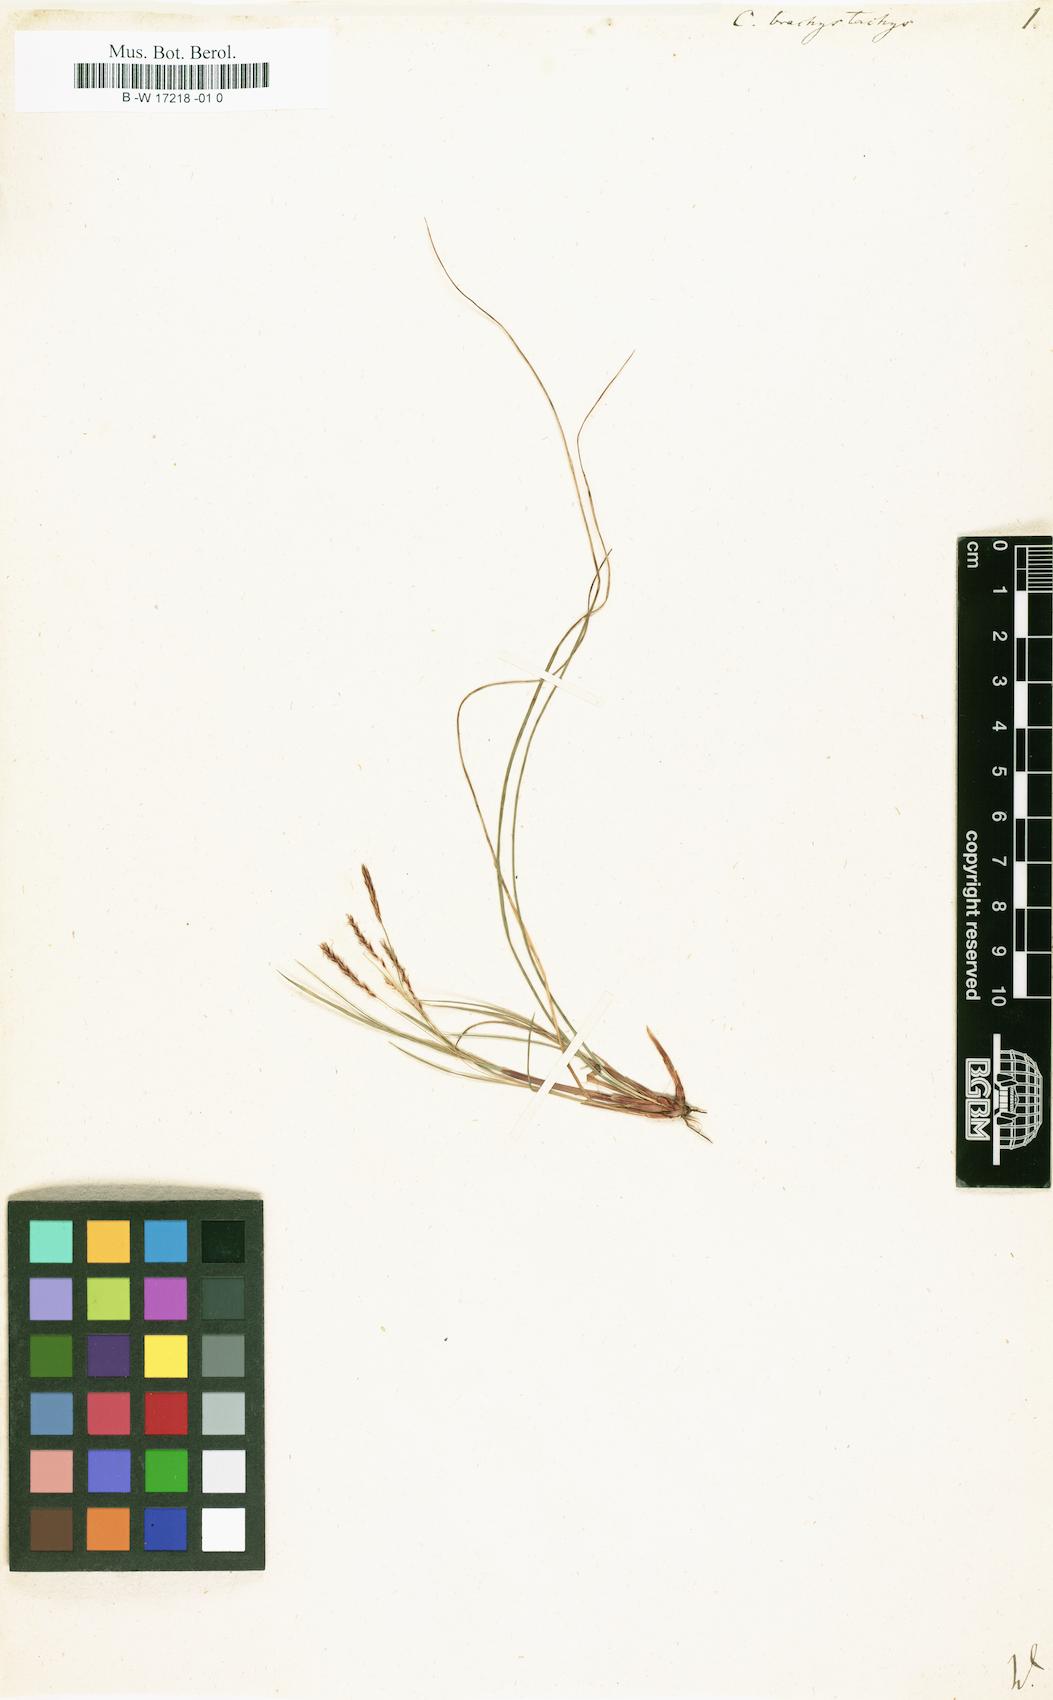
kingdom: Plantae
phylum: Tracheophyta
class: Liliopsida
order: Poales
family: Cyperaceae
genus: Carex
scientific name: Carex brachystachys
